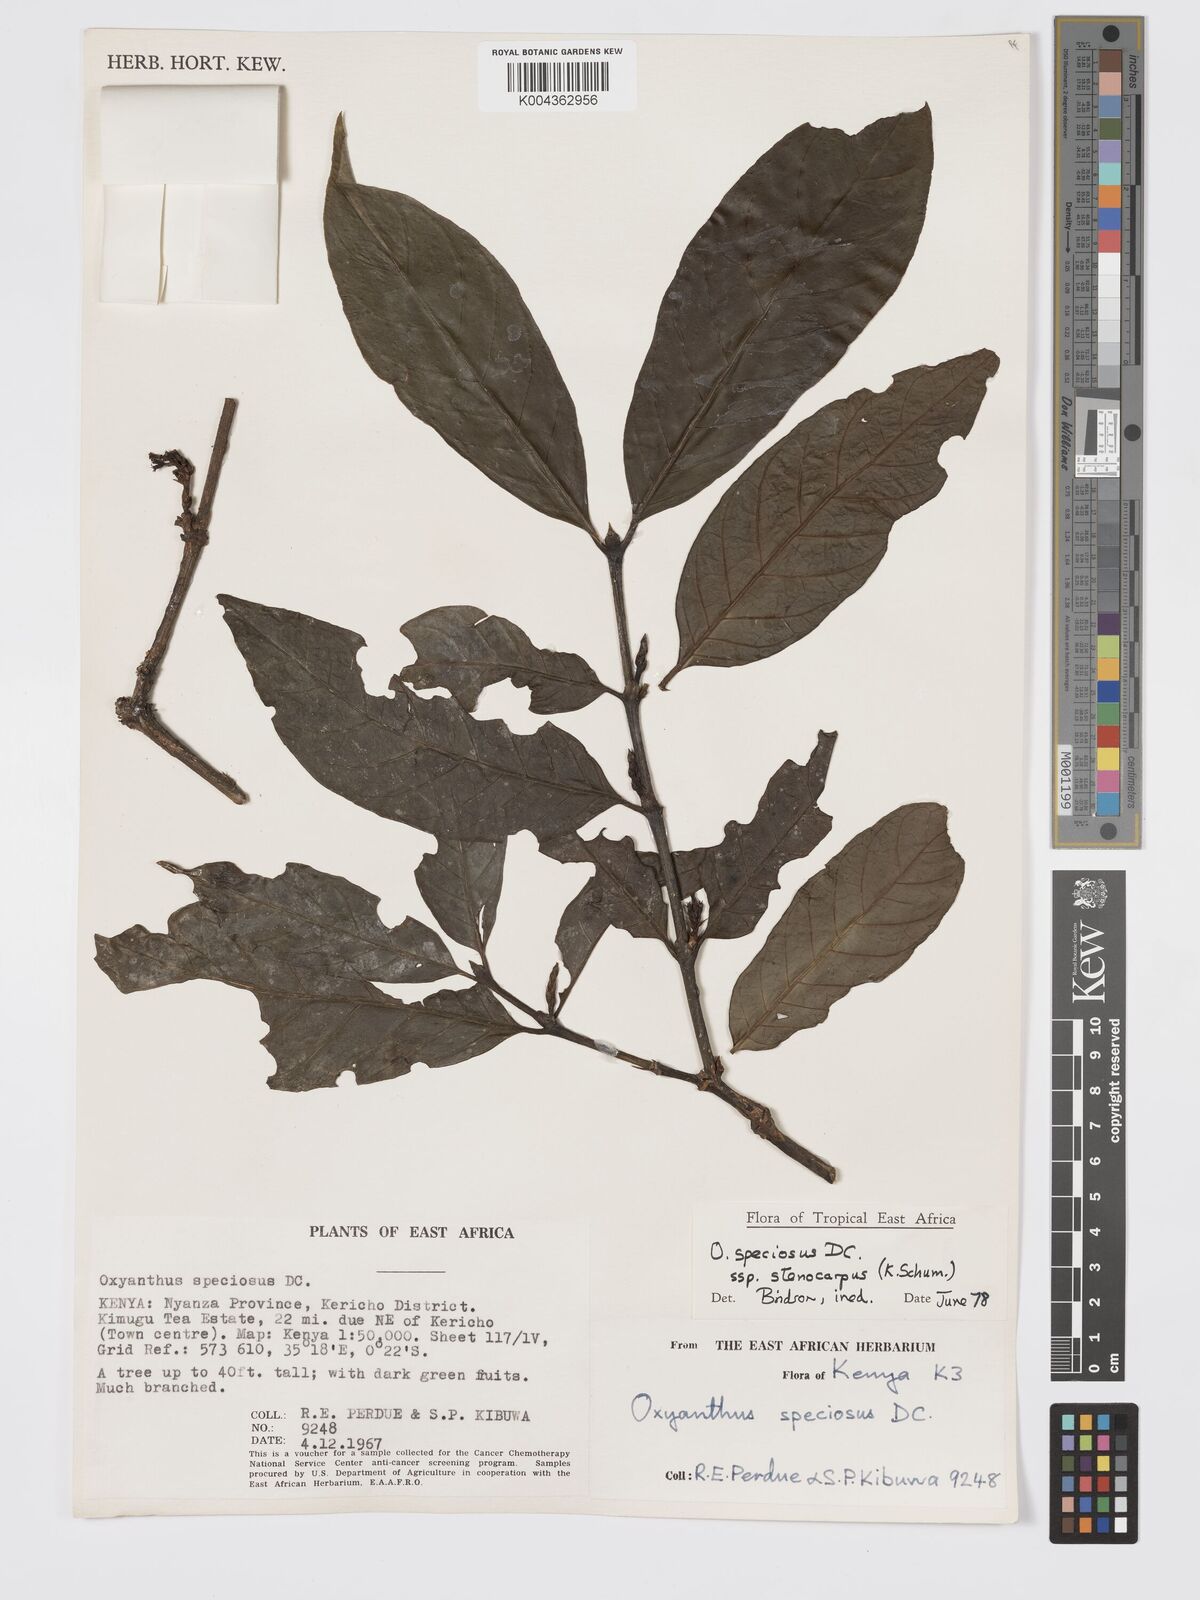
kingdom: Plantae
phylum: Tracheophyta
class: Magnoliopsida
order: Gentianales
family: Rubiaceae
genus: Oxyanthus
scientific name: Oxyanthus speciosus
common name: Whipstick loquat
